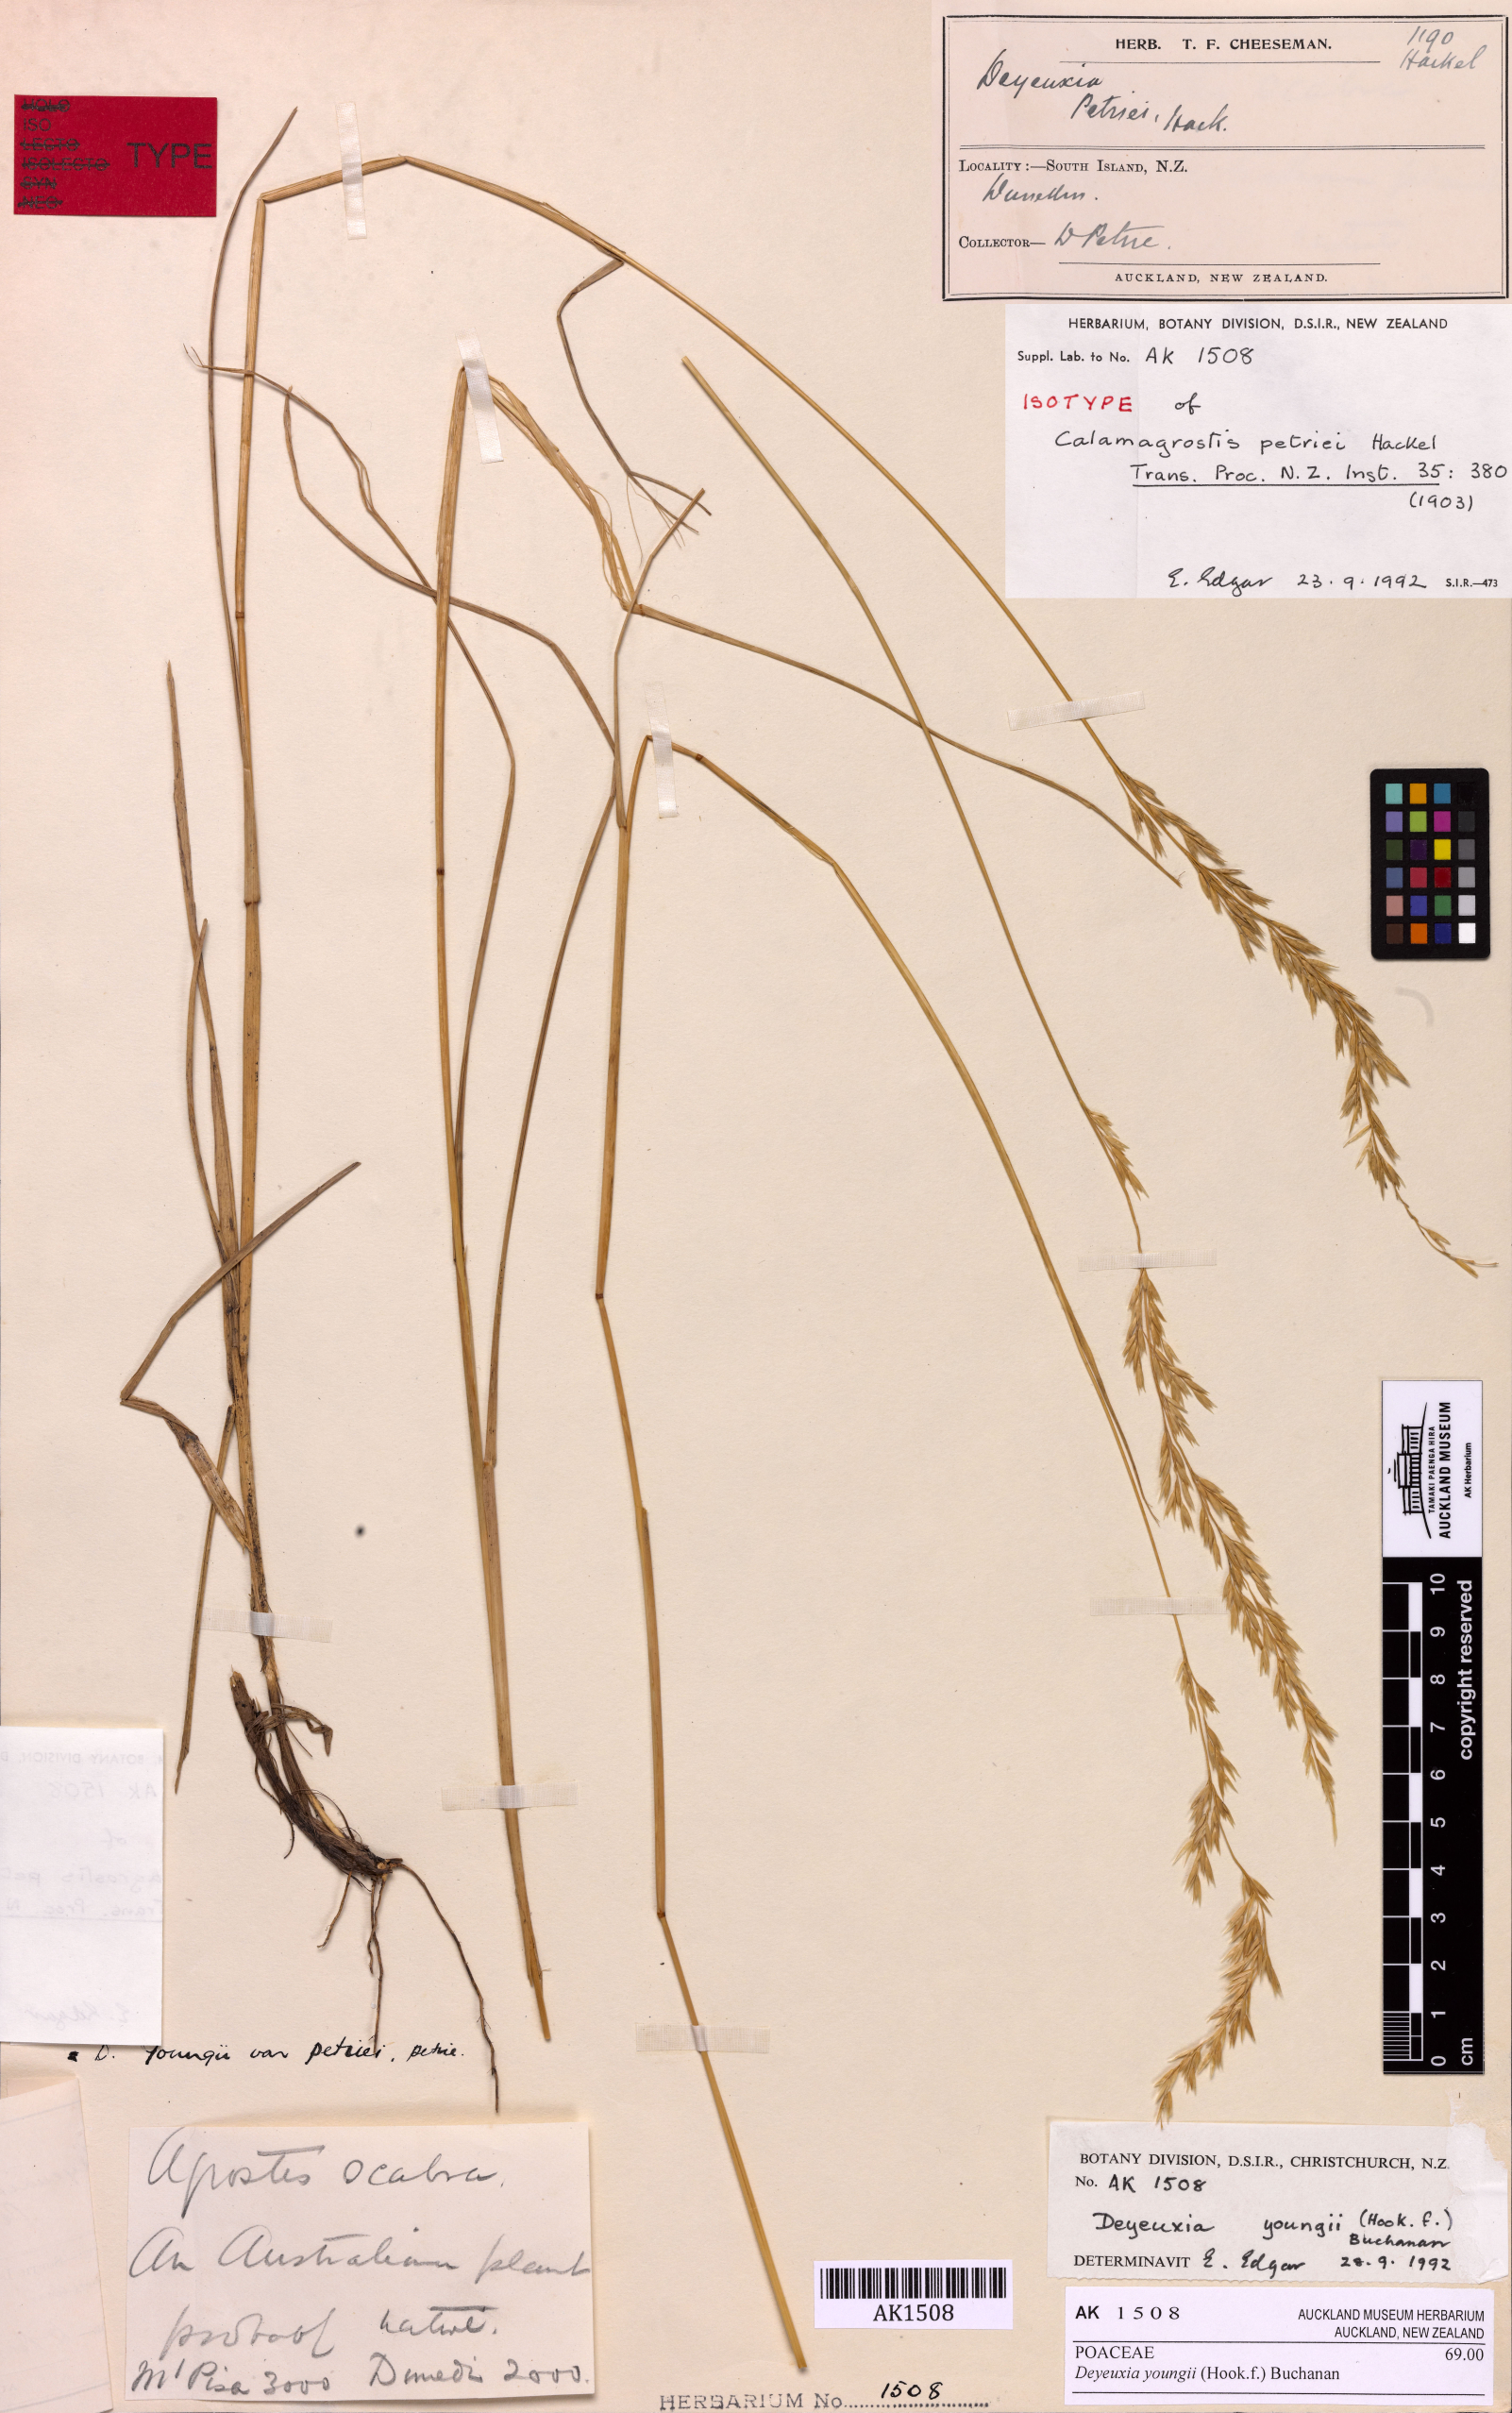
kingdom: Plantae
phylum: Tracheophyta
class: Liliopsida
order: Poales
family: Poaceae
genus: Calamagrostis
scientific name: Calamagrostis youngii
